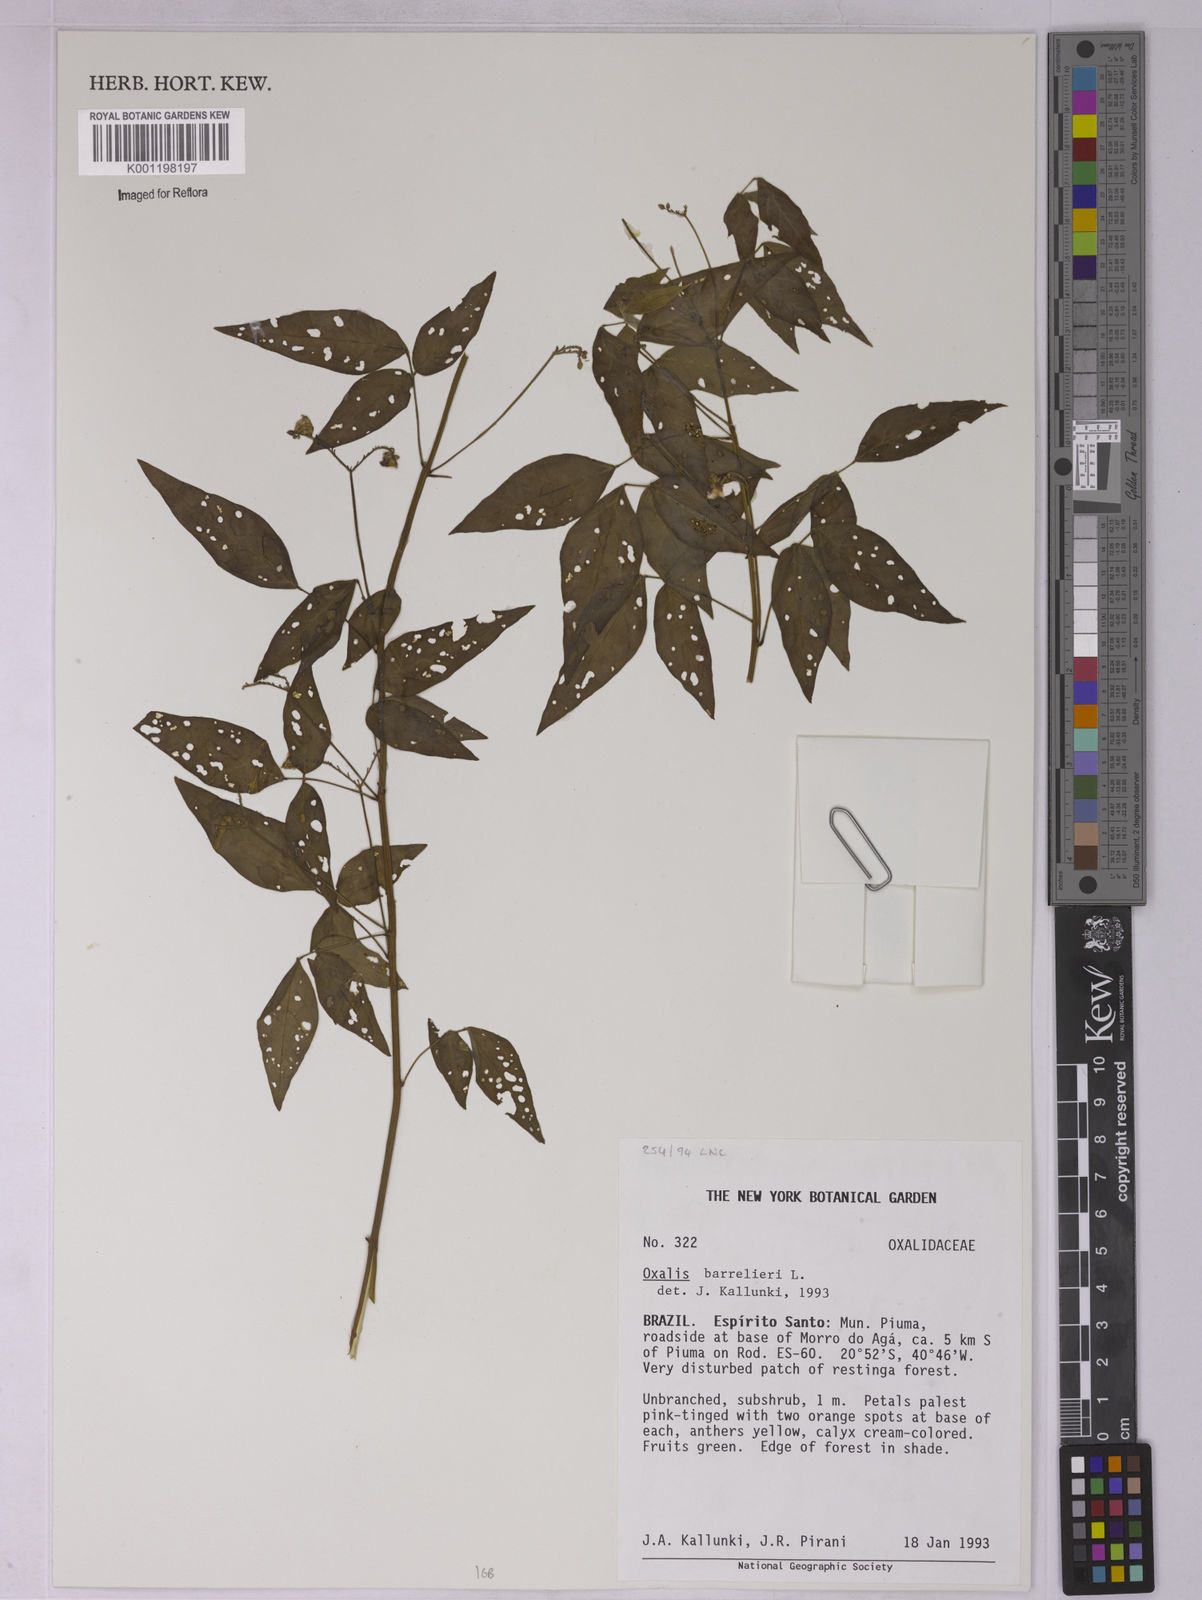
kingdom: Plantae
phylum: Tracheophyta
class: Magnoliopsida
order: Oxalidales
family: Oxalidaceae
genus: Oxalis
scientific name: Oxalis barrelieri
